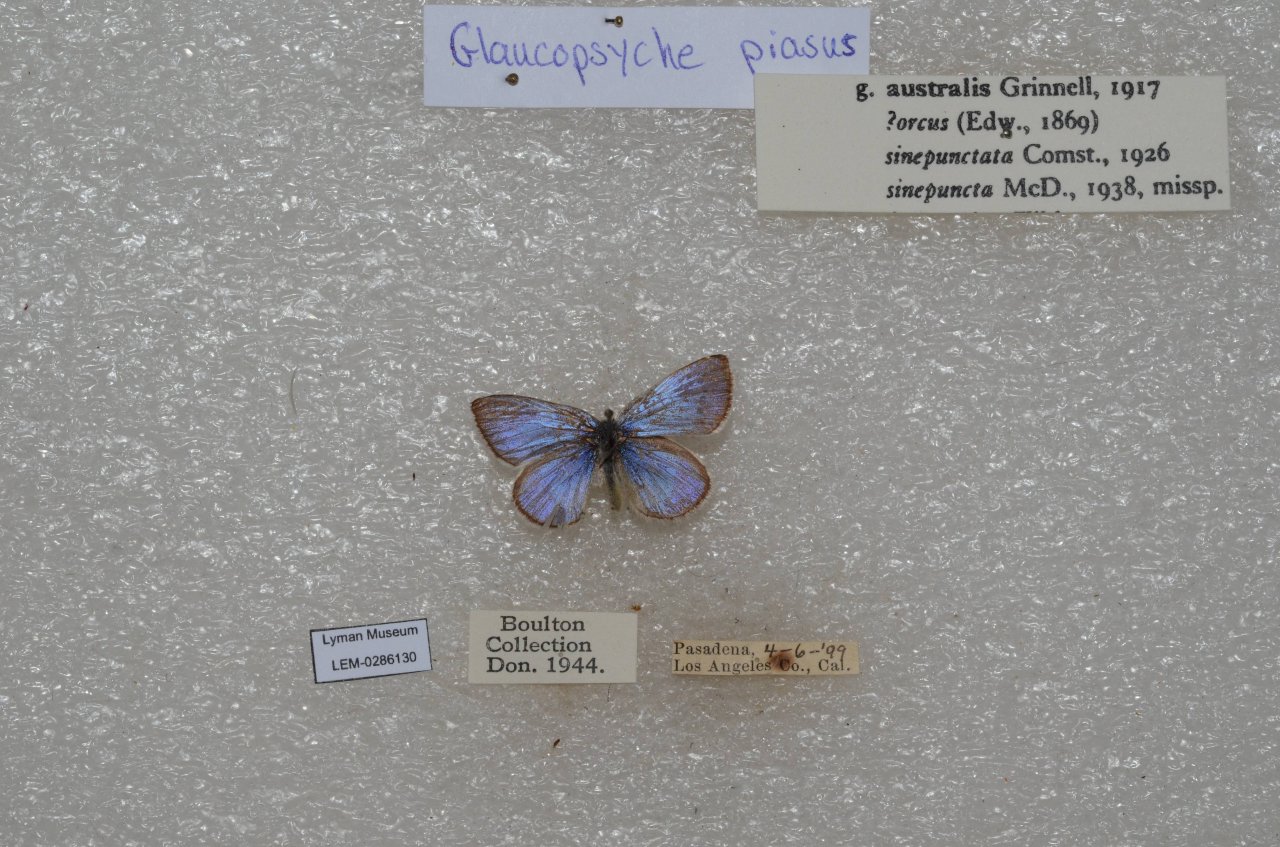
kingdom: Animalia
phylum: Arthropoda
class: Insecta
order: Lepidoptera
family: Lycaenidae
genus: Glaucopsyche
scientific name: Glaucopsyche lygdamus
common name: Silvery Blue
